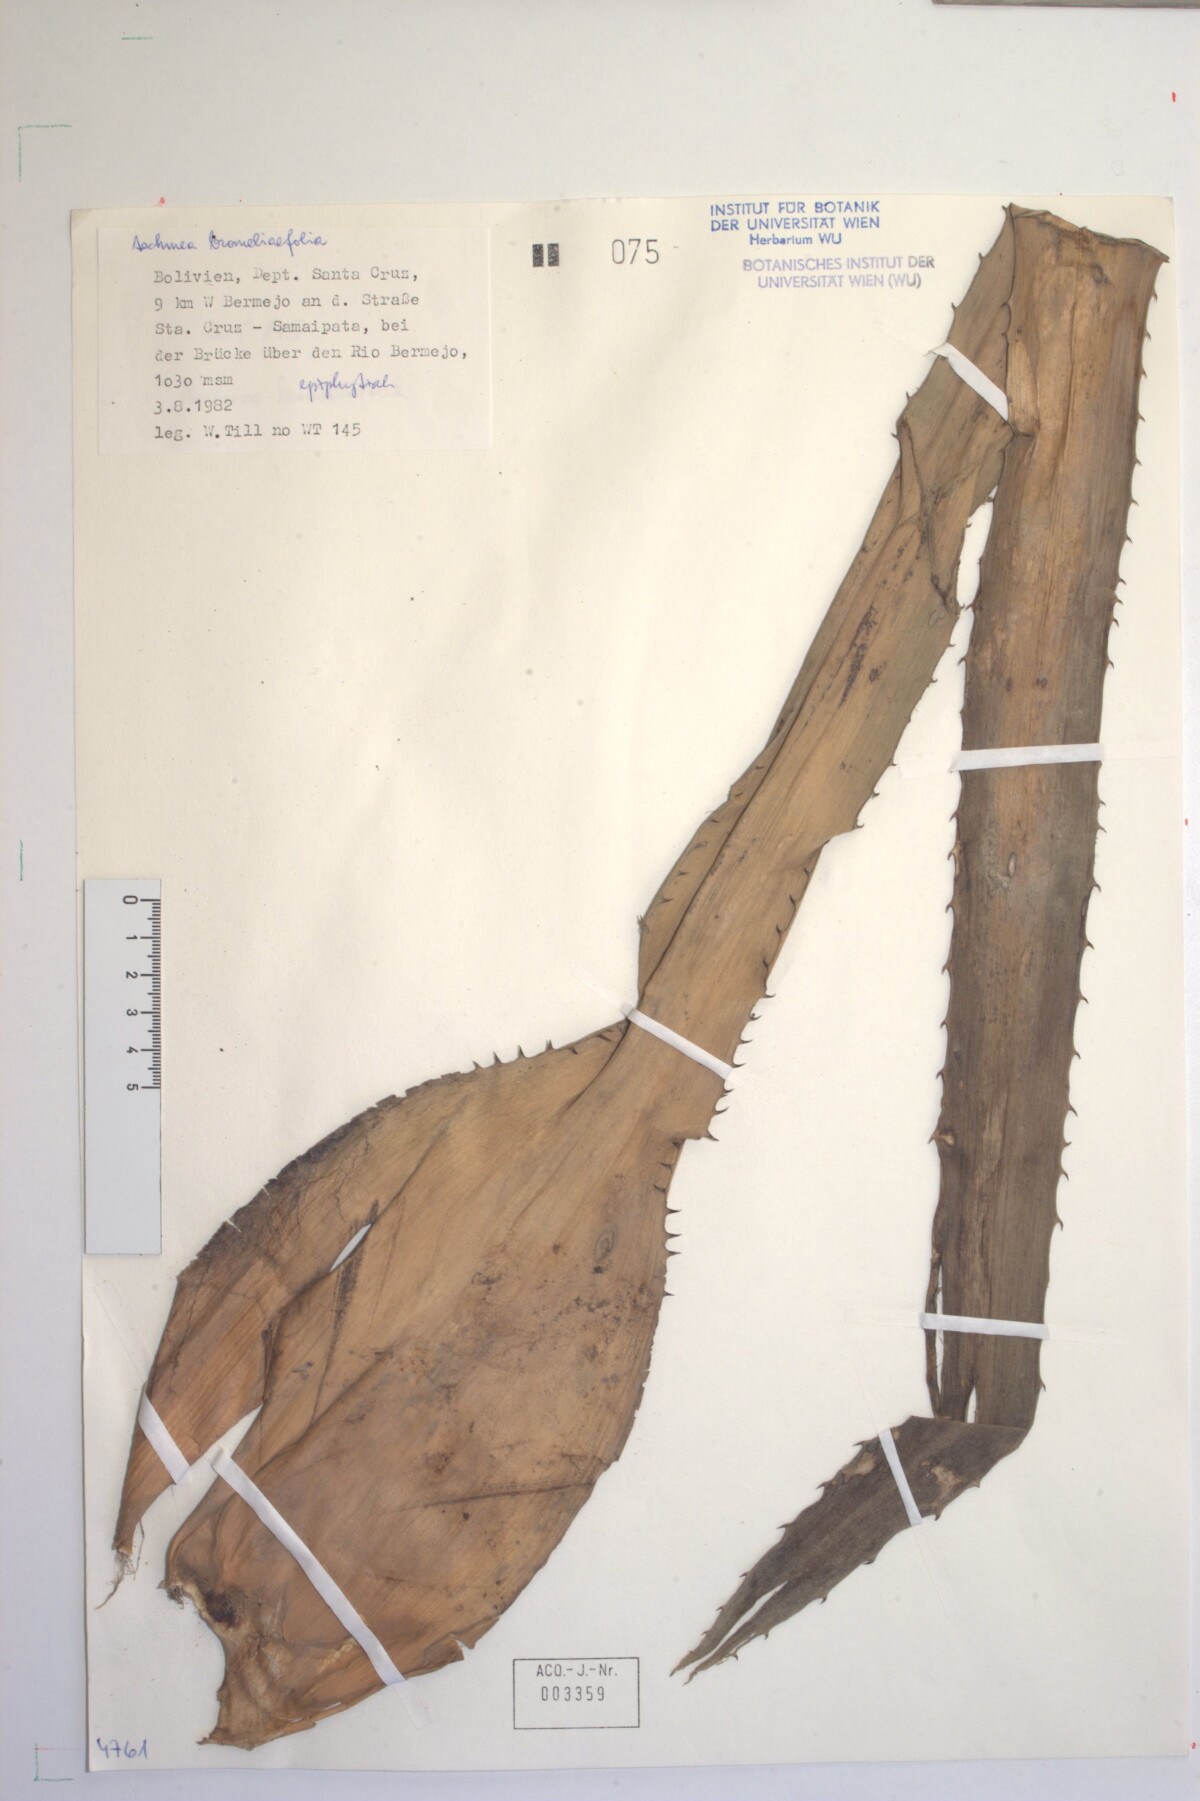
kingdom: Plantae
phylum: Tracheophyta
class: Liliopsida
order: Poales
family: Bromeliaceae
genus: Aechmea
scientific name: Aechmea bromeliifolia
